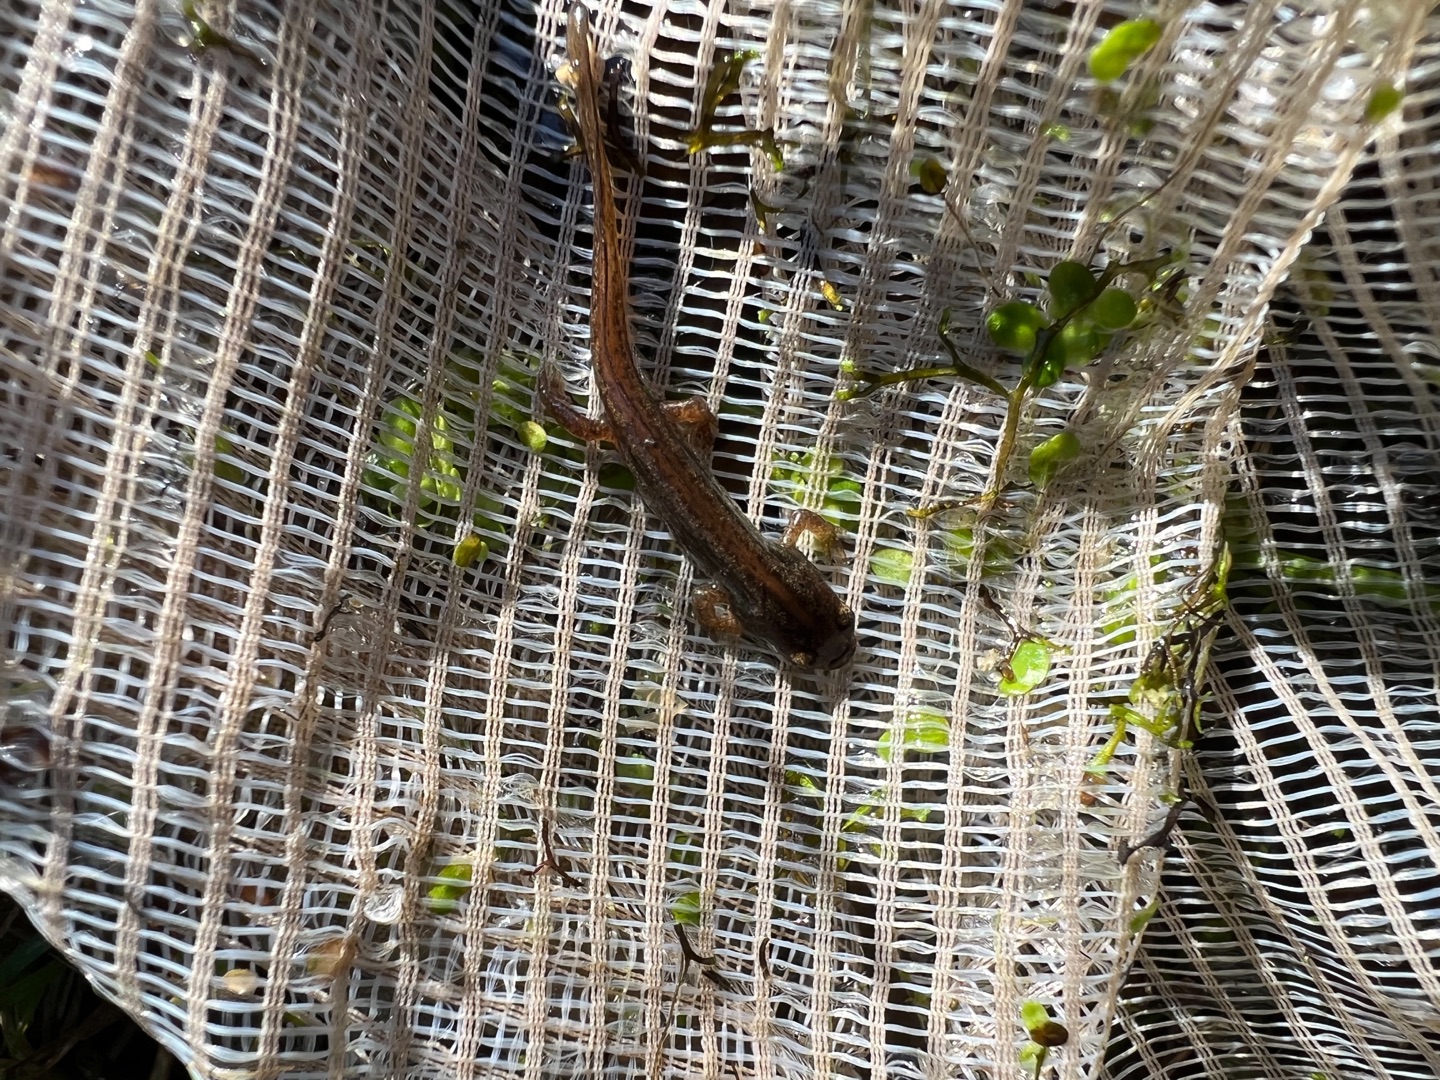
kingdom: Animalia
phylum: Chordata
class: Amphibia
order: Caudata
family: Salamandridae
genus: Lissotriton
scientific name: Lissotriton vulgaris
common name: Lille vandsalamander
